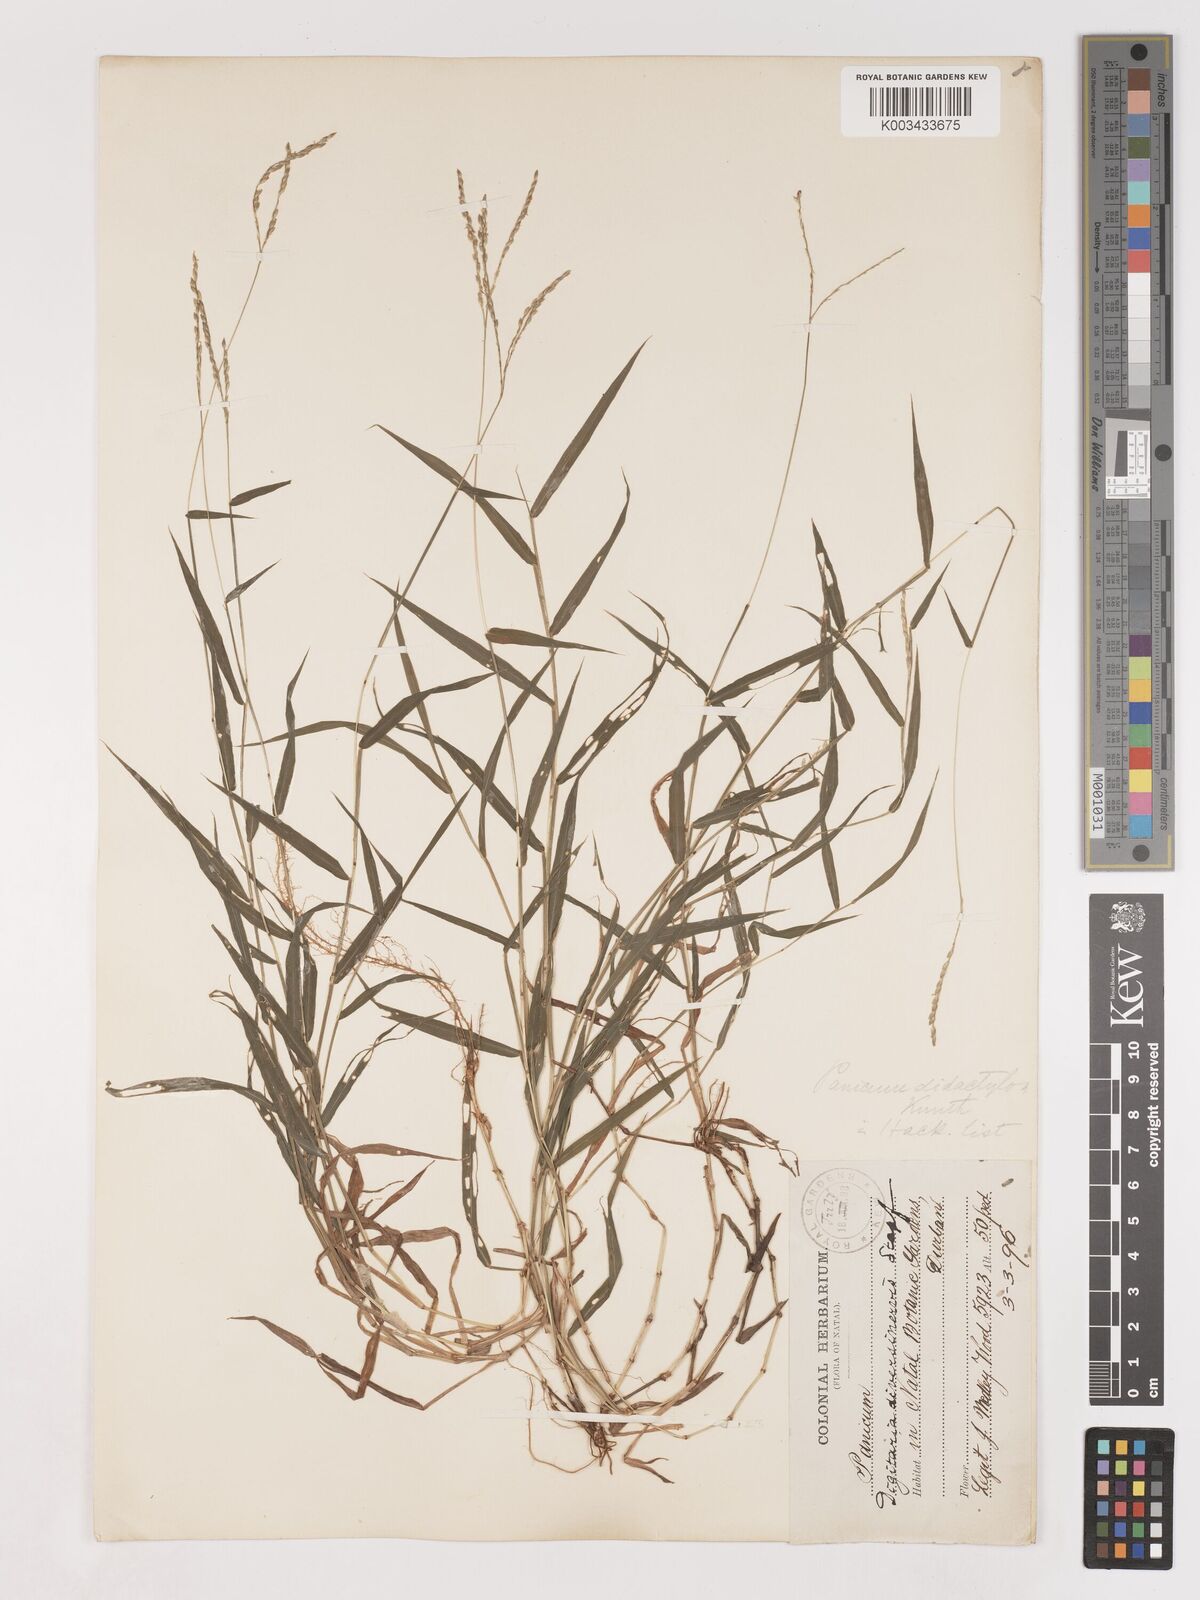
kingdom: Plantae
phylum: Tracheophyta
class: Liliopsida
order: Poales
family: Poaceae
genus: Digitaria
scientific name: Digitaria diversinervis
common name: Richmond finger grass
